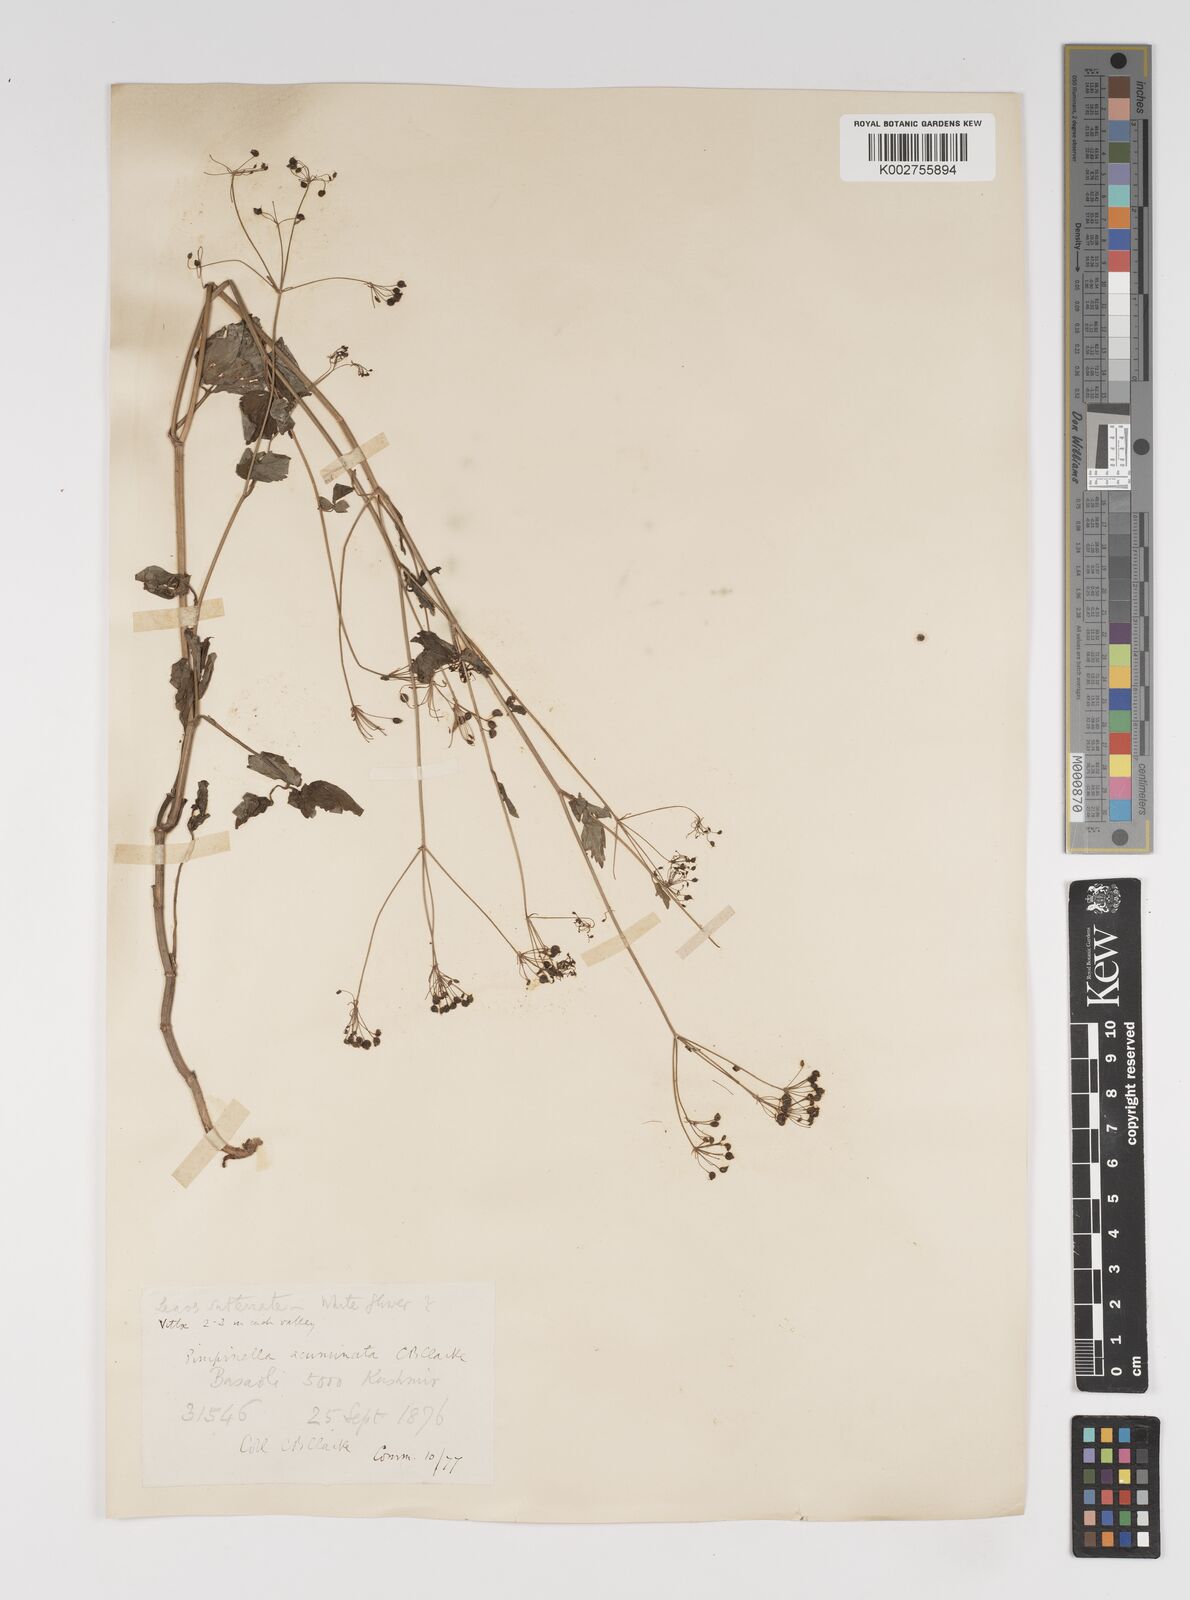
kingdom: Plantae
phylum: Tracheophyta
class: Magnoliopsida
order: Apiales
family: Apiaceae
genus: Pimpinella
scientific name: Pimpinella acuminata
